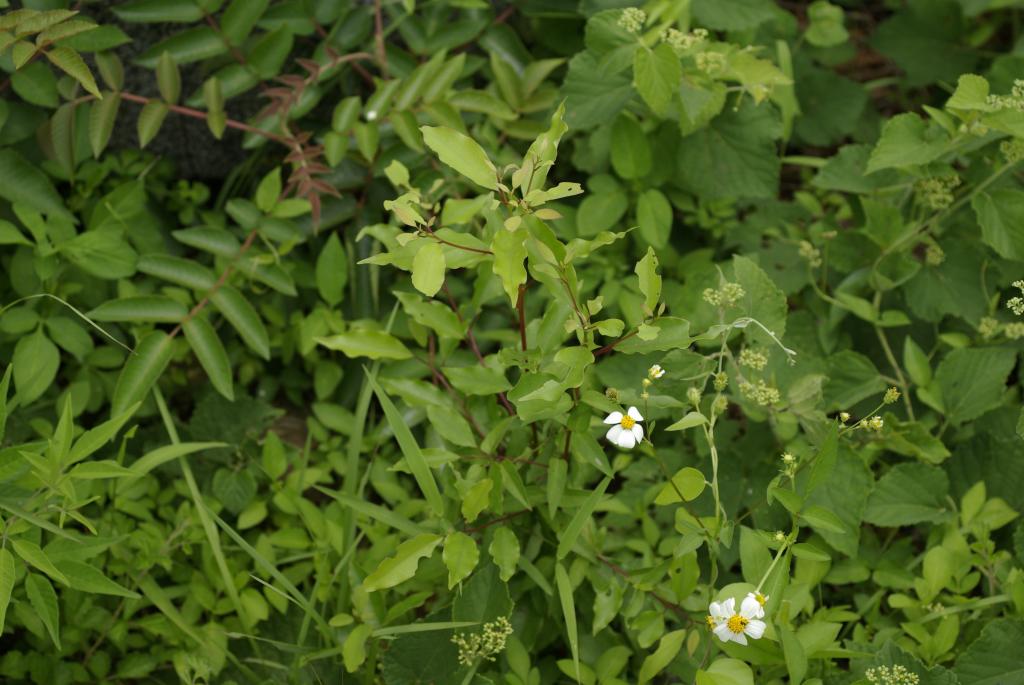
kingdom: Plantae
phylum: Tracheophyta
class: Magnoliopsida
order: Laurales
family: Lauraceae
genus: Cinnamomum
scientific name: Cinnamomum camphora
